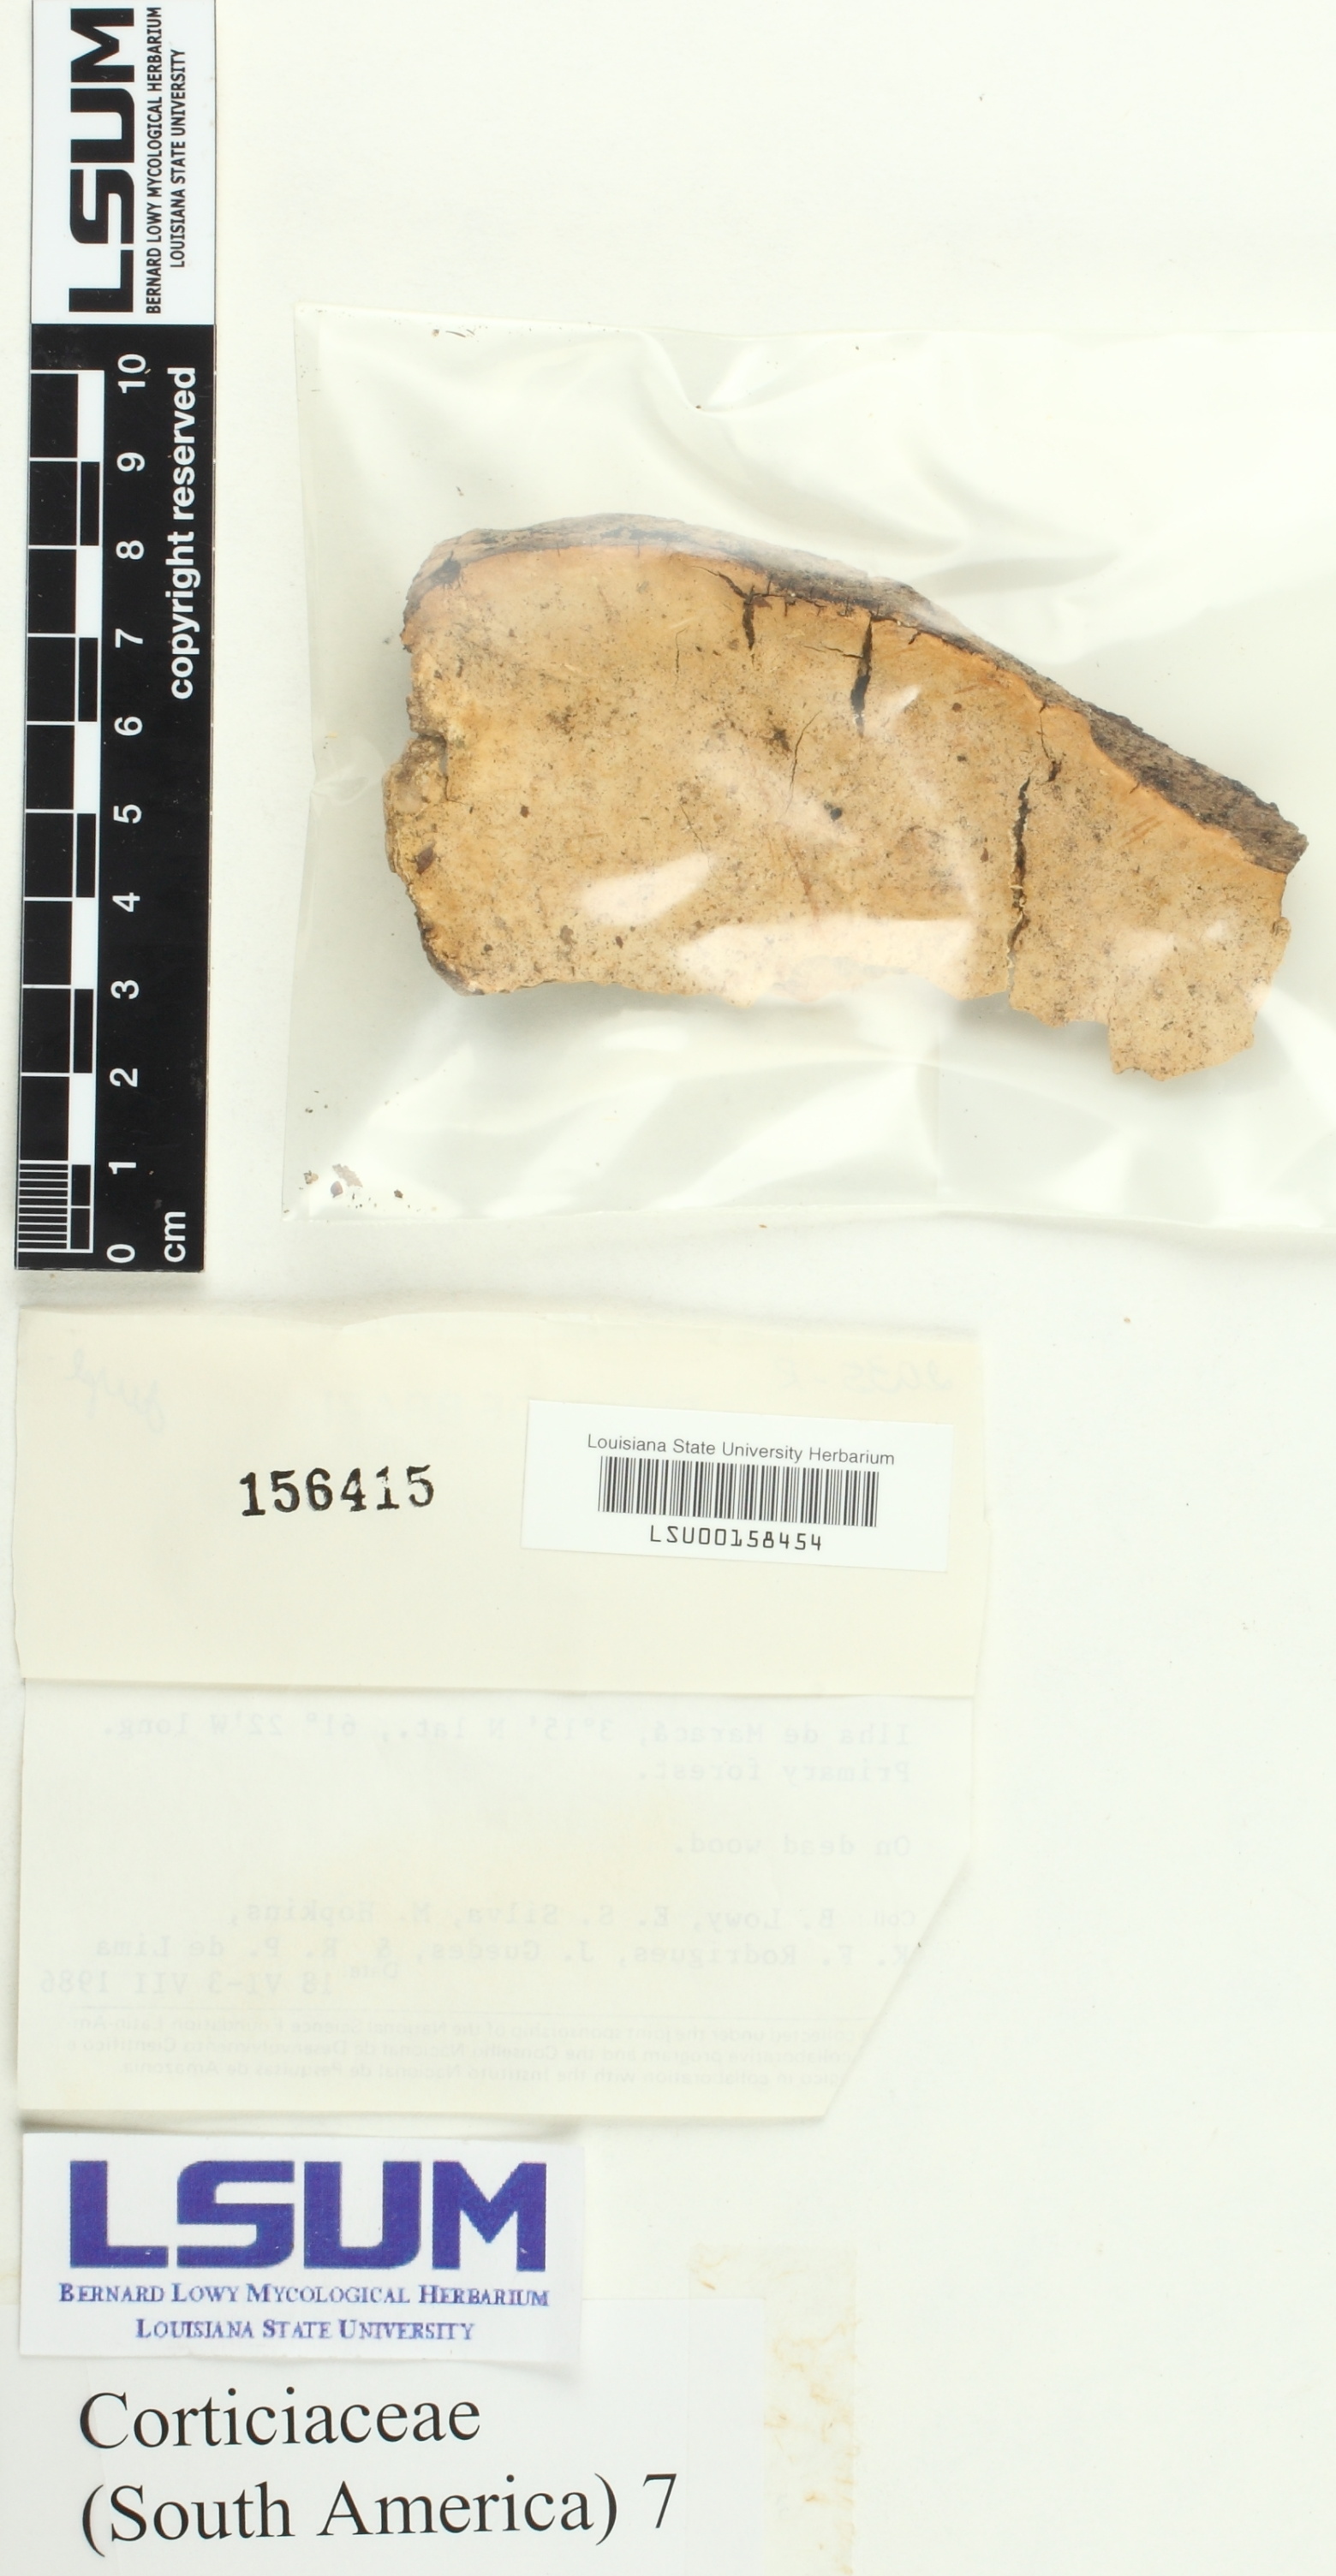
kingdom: Fungi
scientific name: Fungi
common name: Fungi
